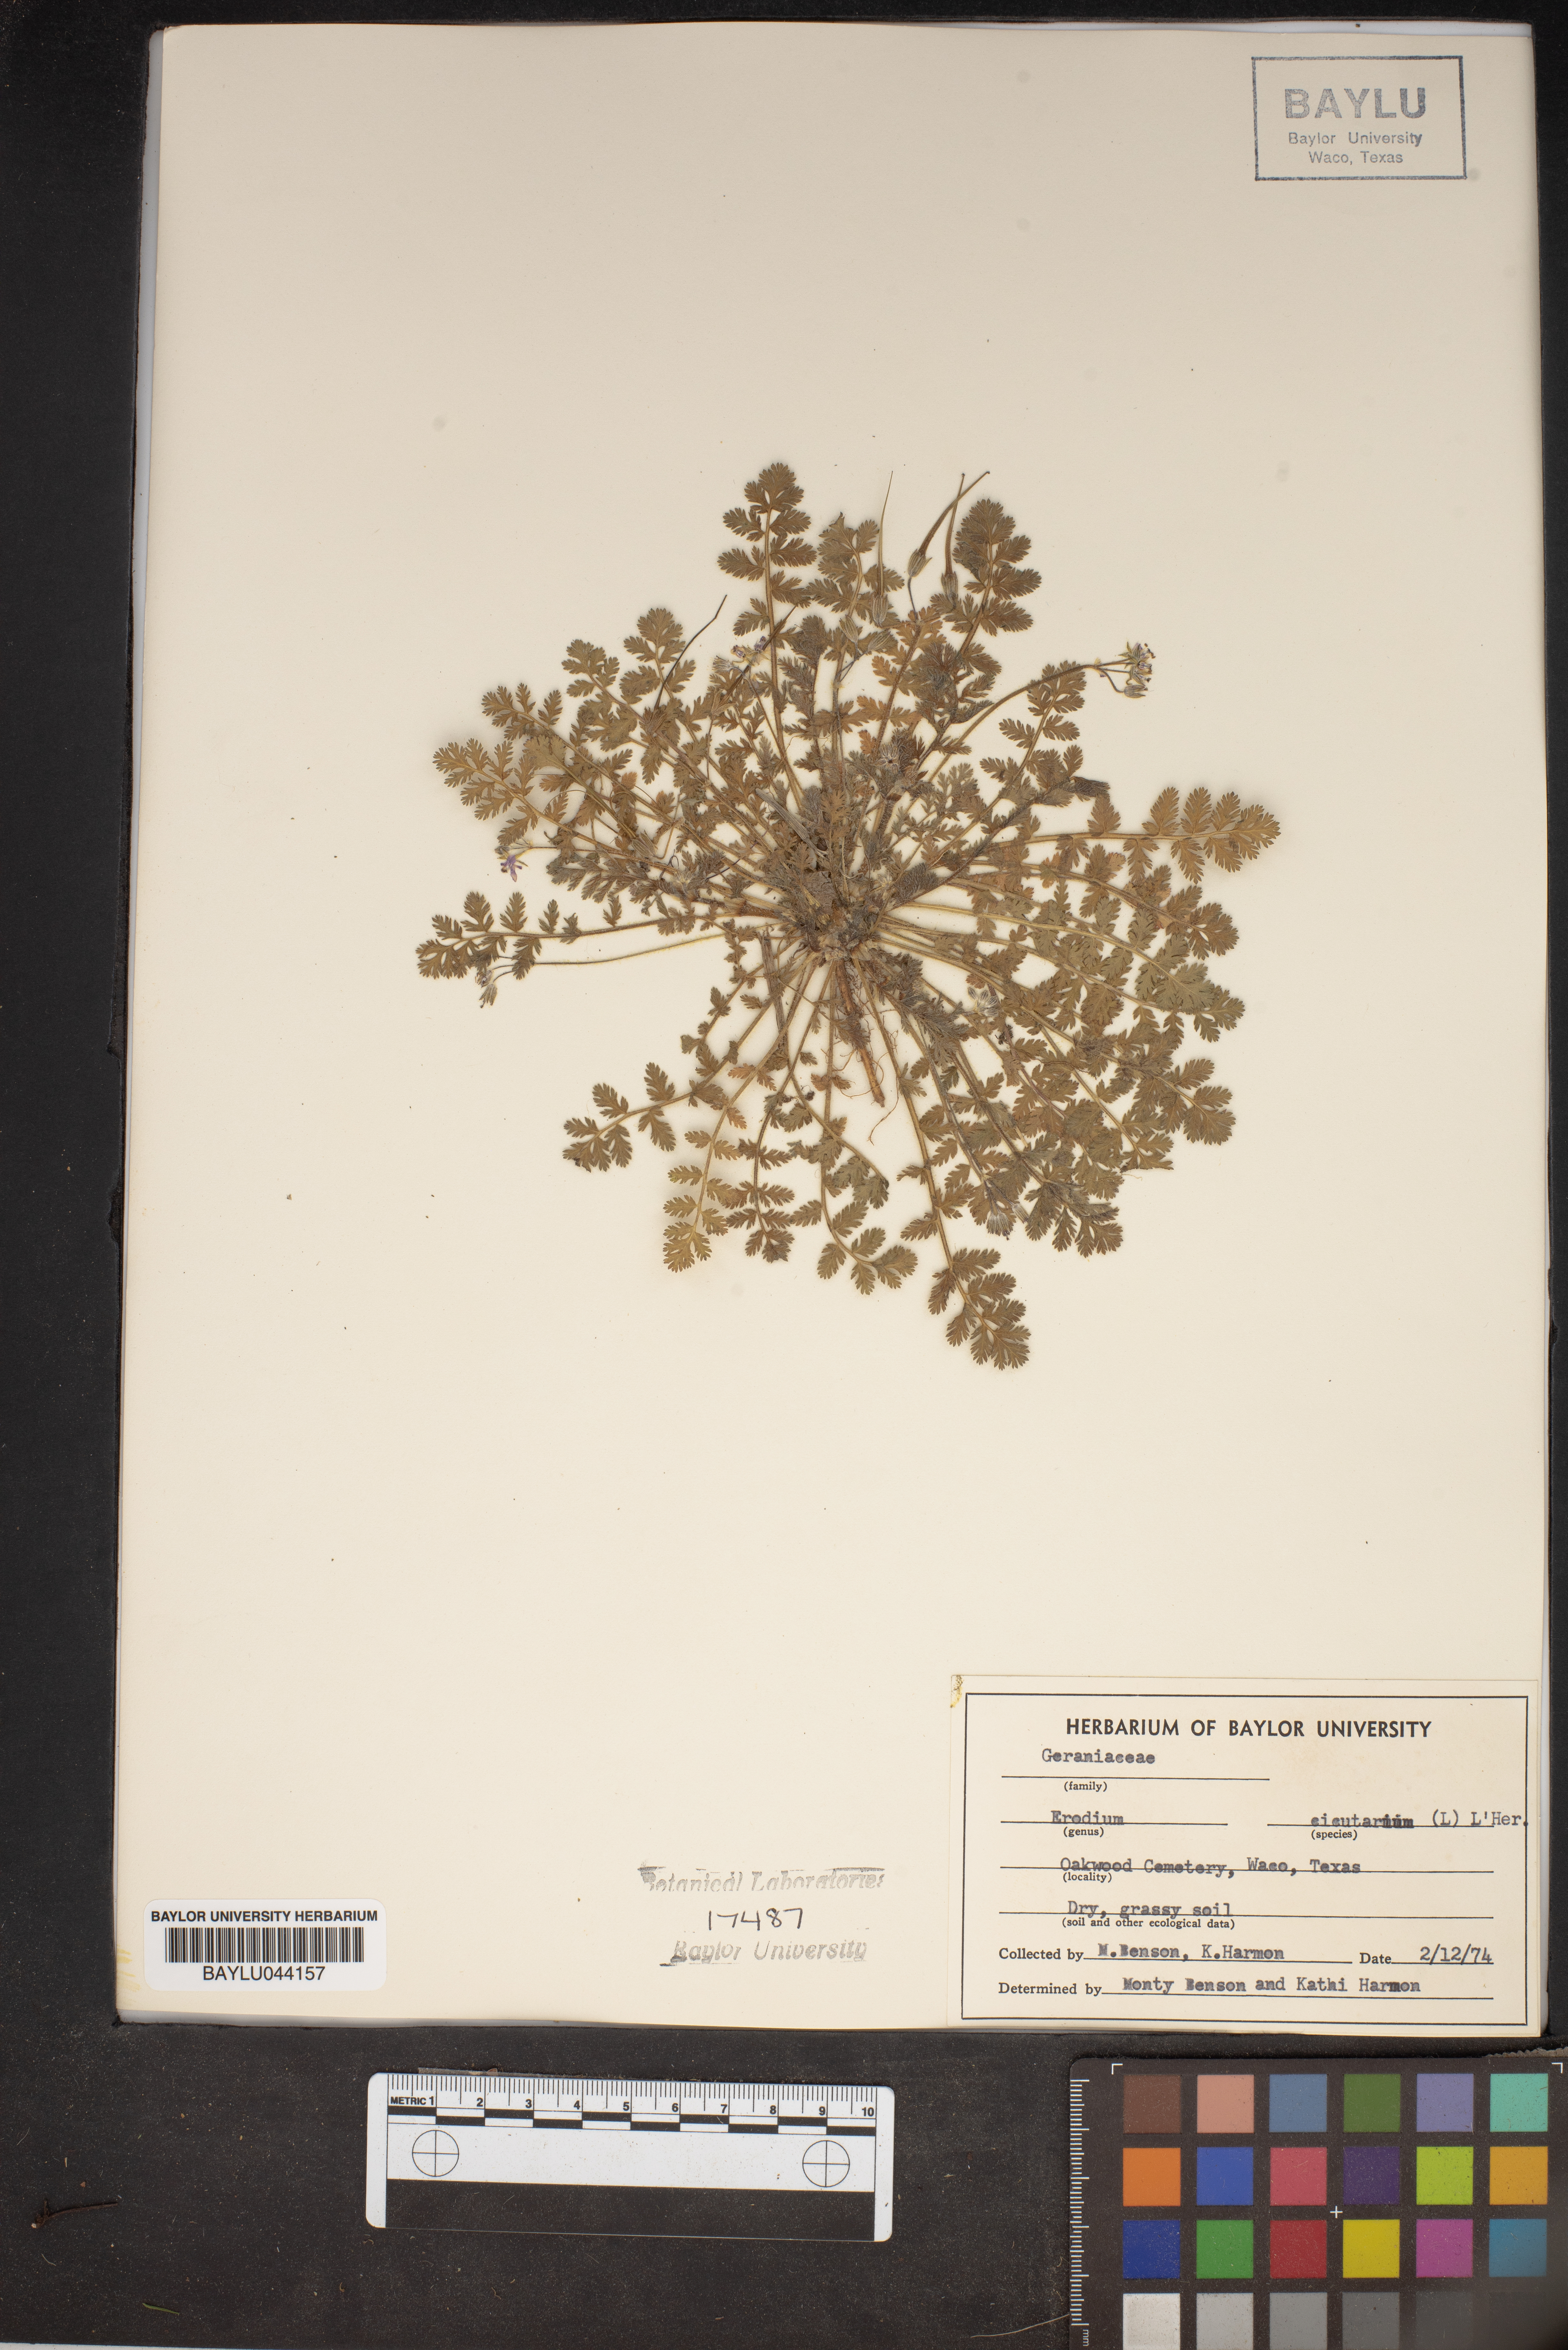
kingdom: Plantae
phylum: Tracheophyta
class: Magnoliopsida
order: Geraniales
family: Geraniaceae
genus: Erodium
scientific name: Erodium cicutarium
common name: Common stork's-bill
